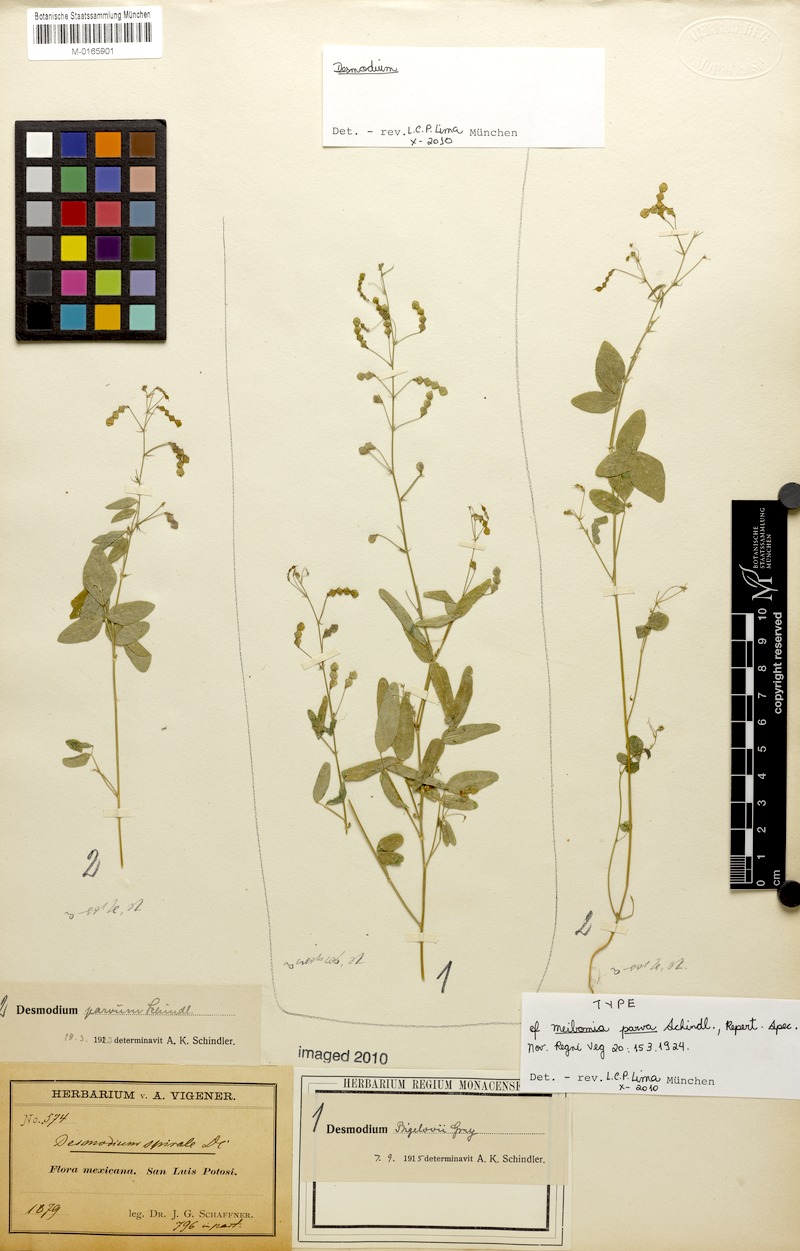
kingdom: Plantae
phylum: Tracheophyta
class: Magnoliopsida
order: Fabales
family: Fabaceae
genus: Desmodium
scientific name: Desmodium procumbens
